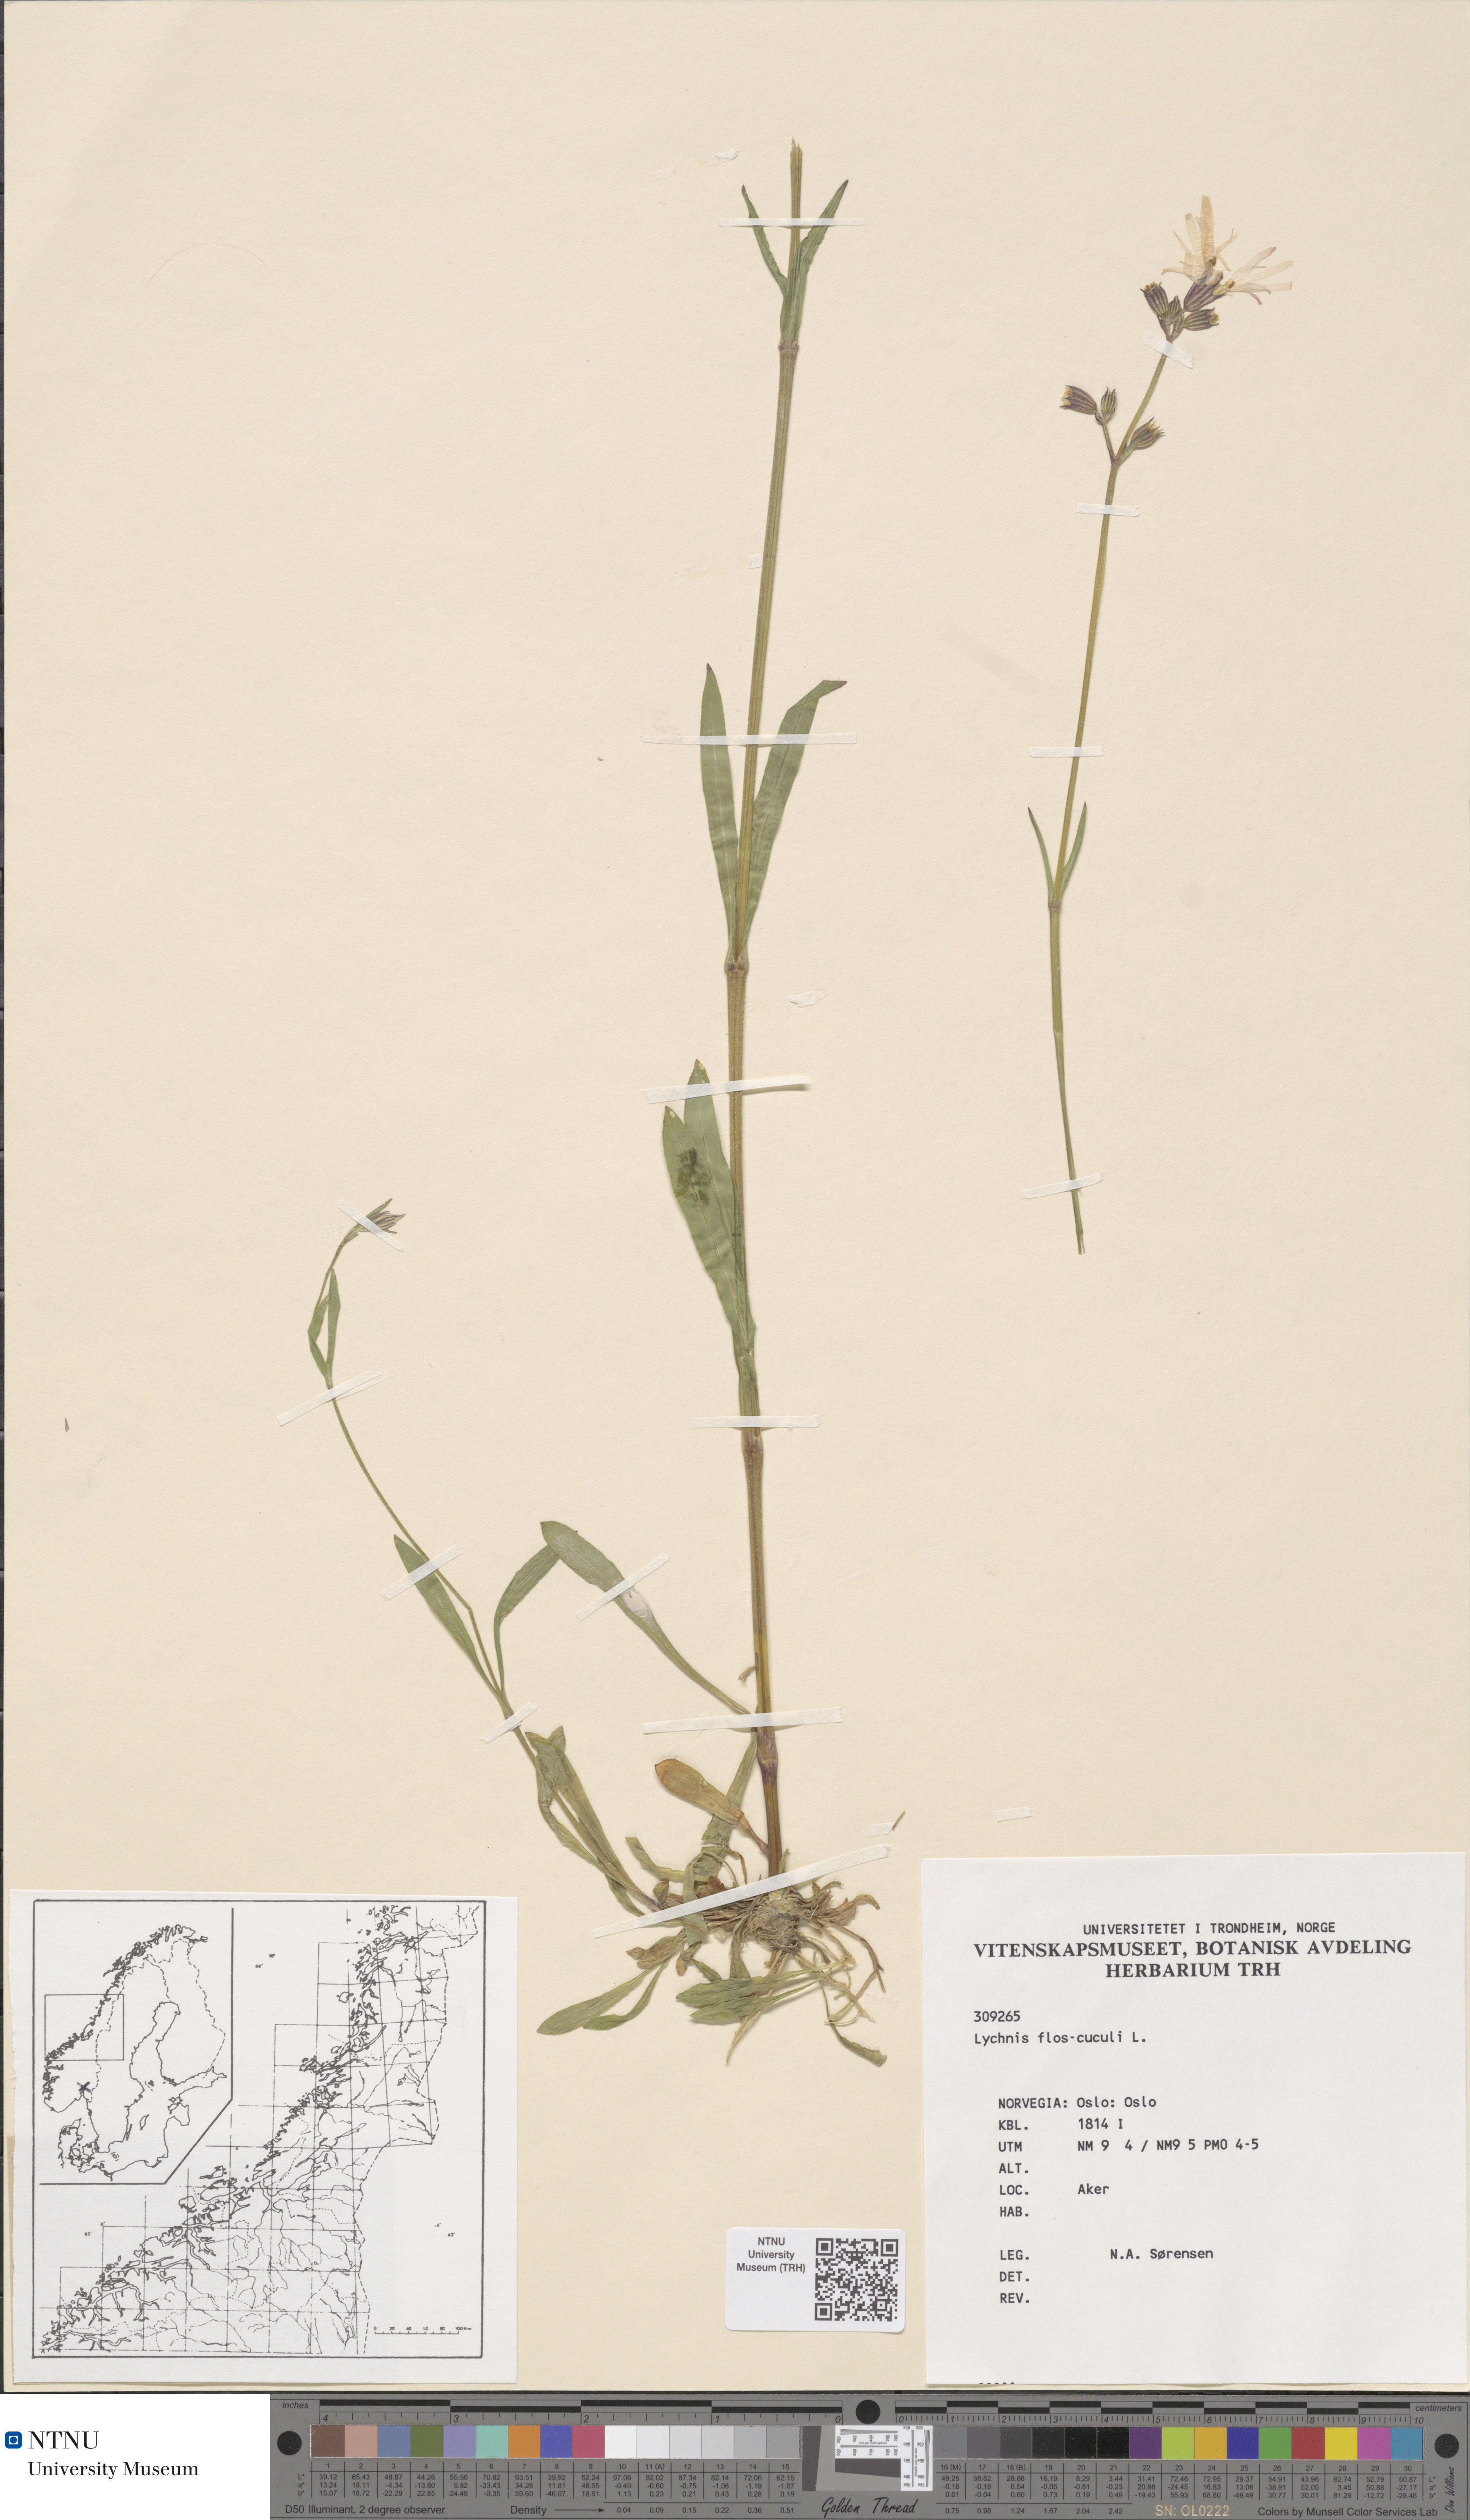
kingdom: Plantae
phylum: Tracheophyta
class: Magnoliopsida
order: Caryophyllales
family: Caryophyllaceae
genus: Silene
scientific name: Silene flos-cuculi
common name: Ragged-robin
